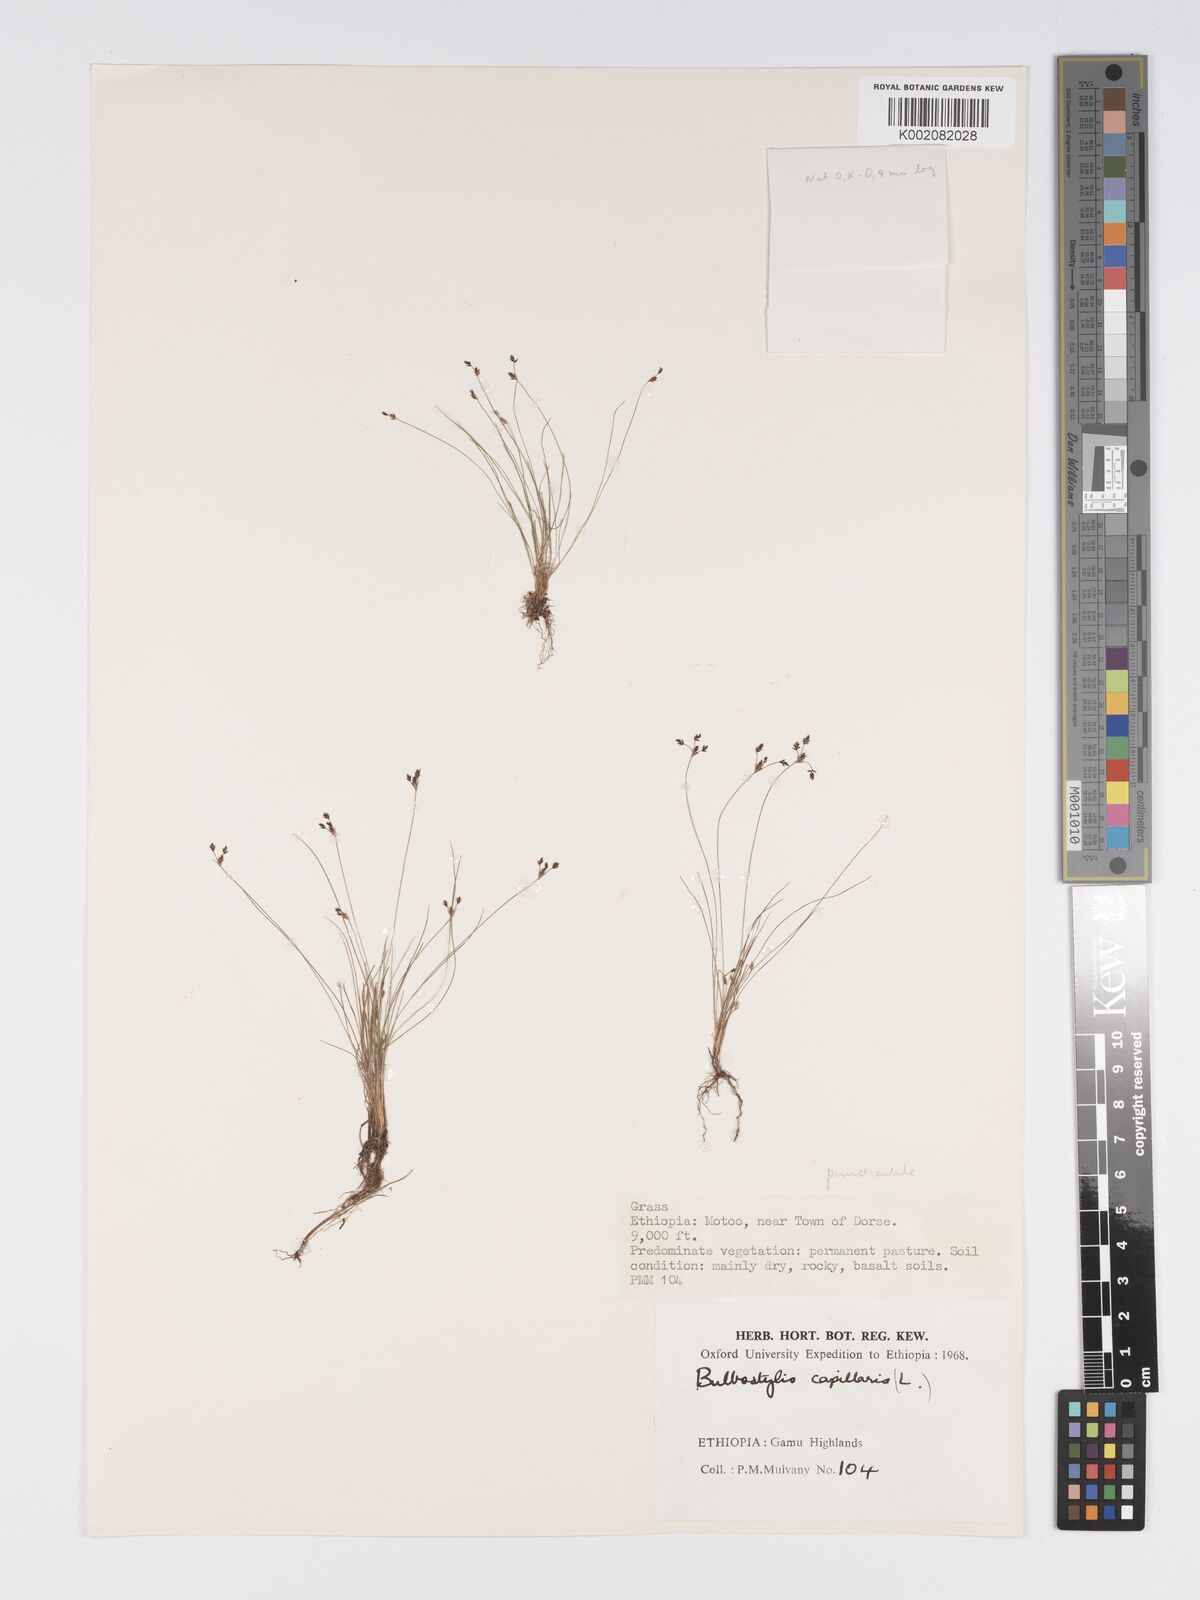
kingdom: Plantae
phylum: Tracheophyta
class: Liliopsida
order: Poales
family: Cyperaceae
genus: Bulbostylis
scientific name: Bulbostylis densa
